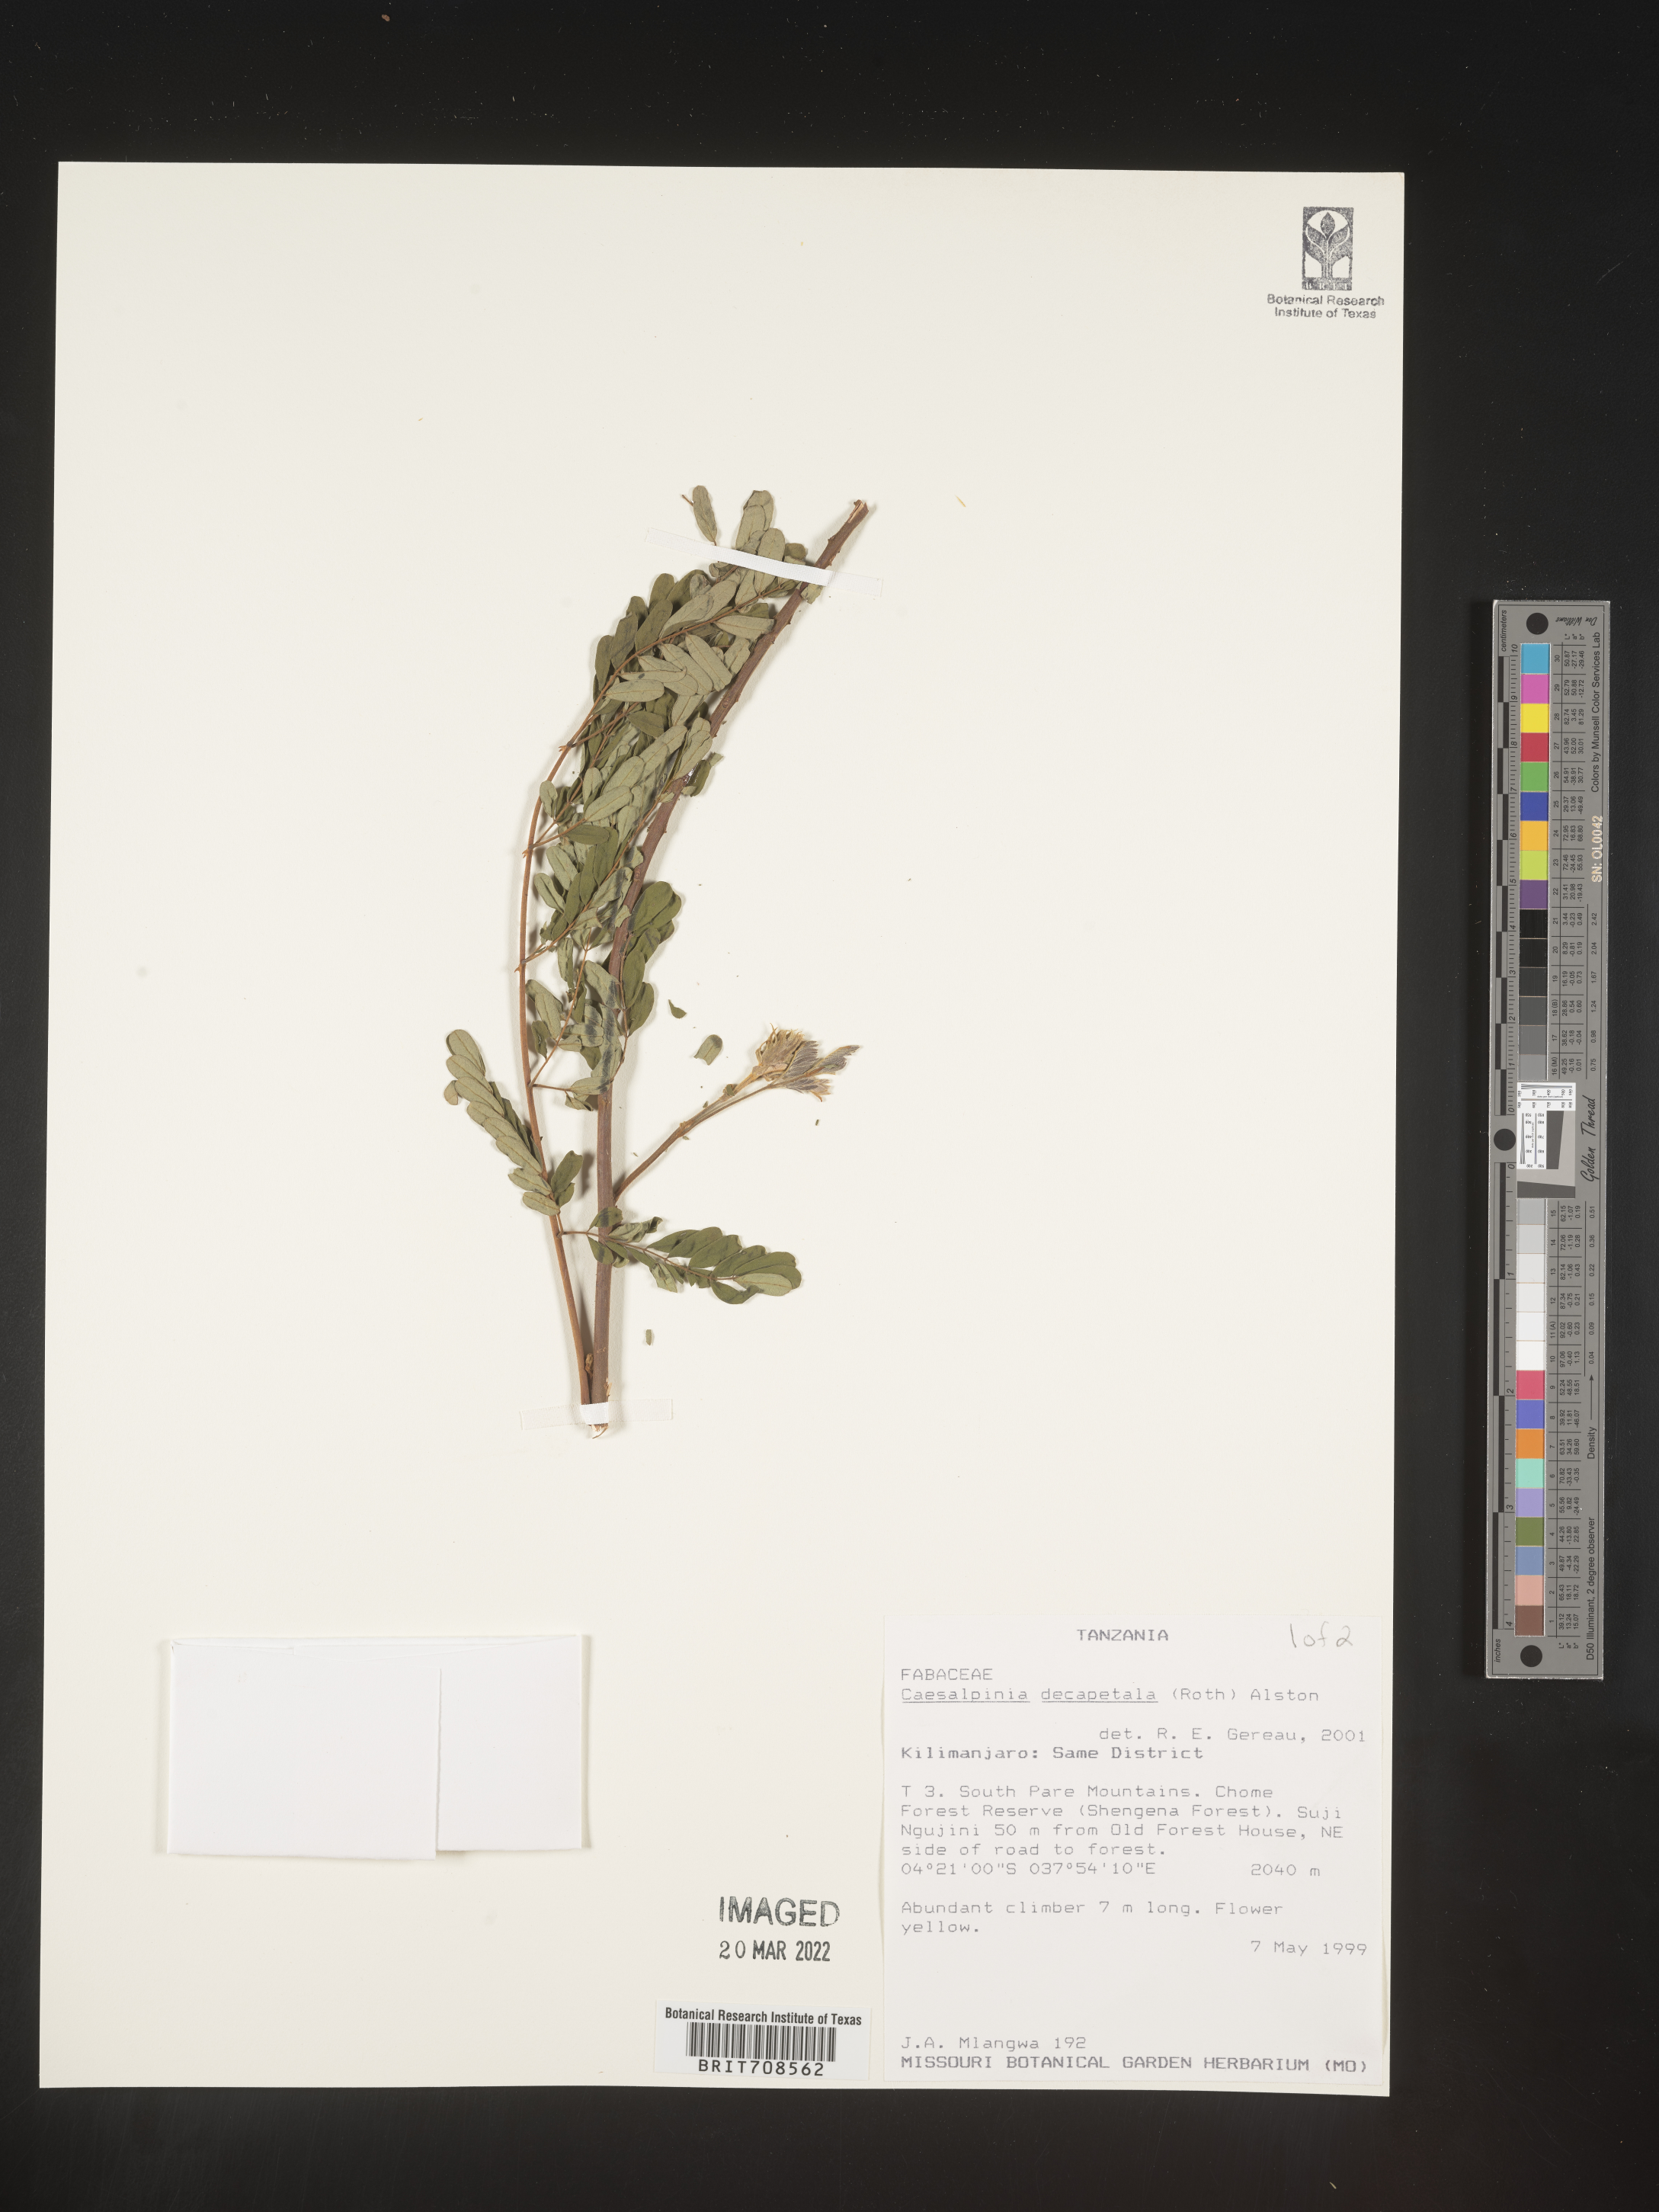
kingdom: Plantae
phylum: Tracheophyta
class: Magnoliopsida
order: Fabales
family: Fabaceae
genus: Caesalpinia
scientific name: Caesalpinia
